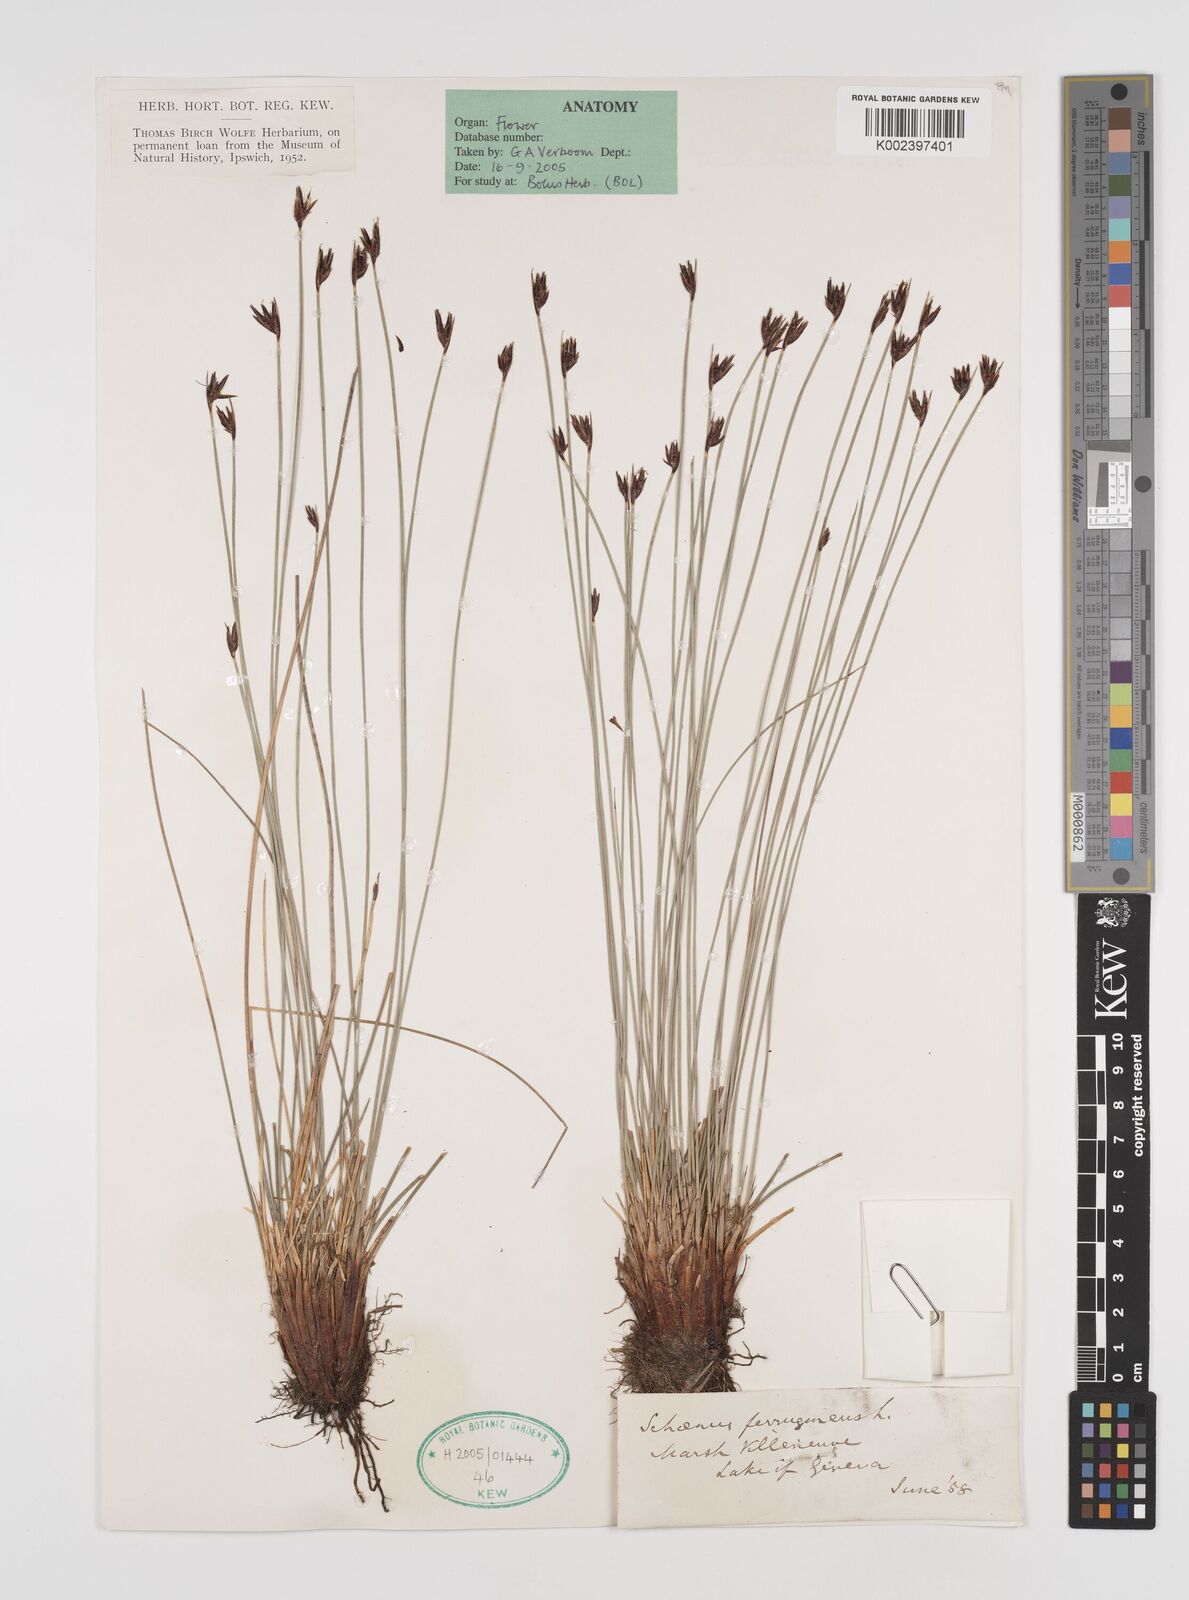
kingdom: Plantae
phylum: Tracheophyta
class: Liliopsida
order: Poales
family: Cyperaceae
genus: Schoenus
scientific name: Schoenus ferrugineus
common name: Brown bog-rush
